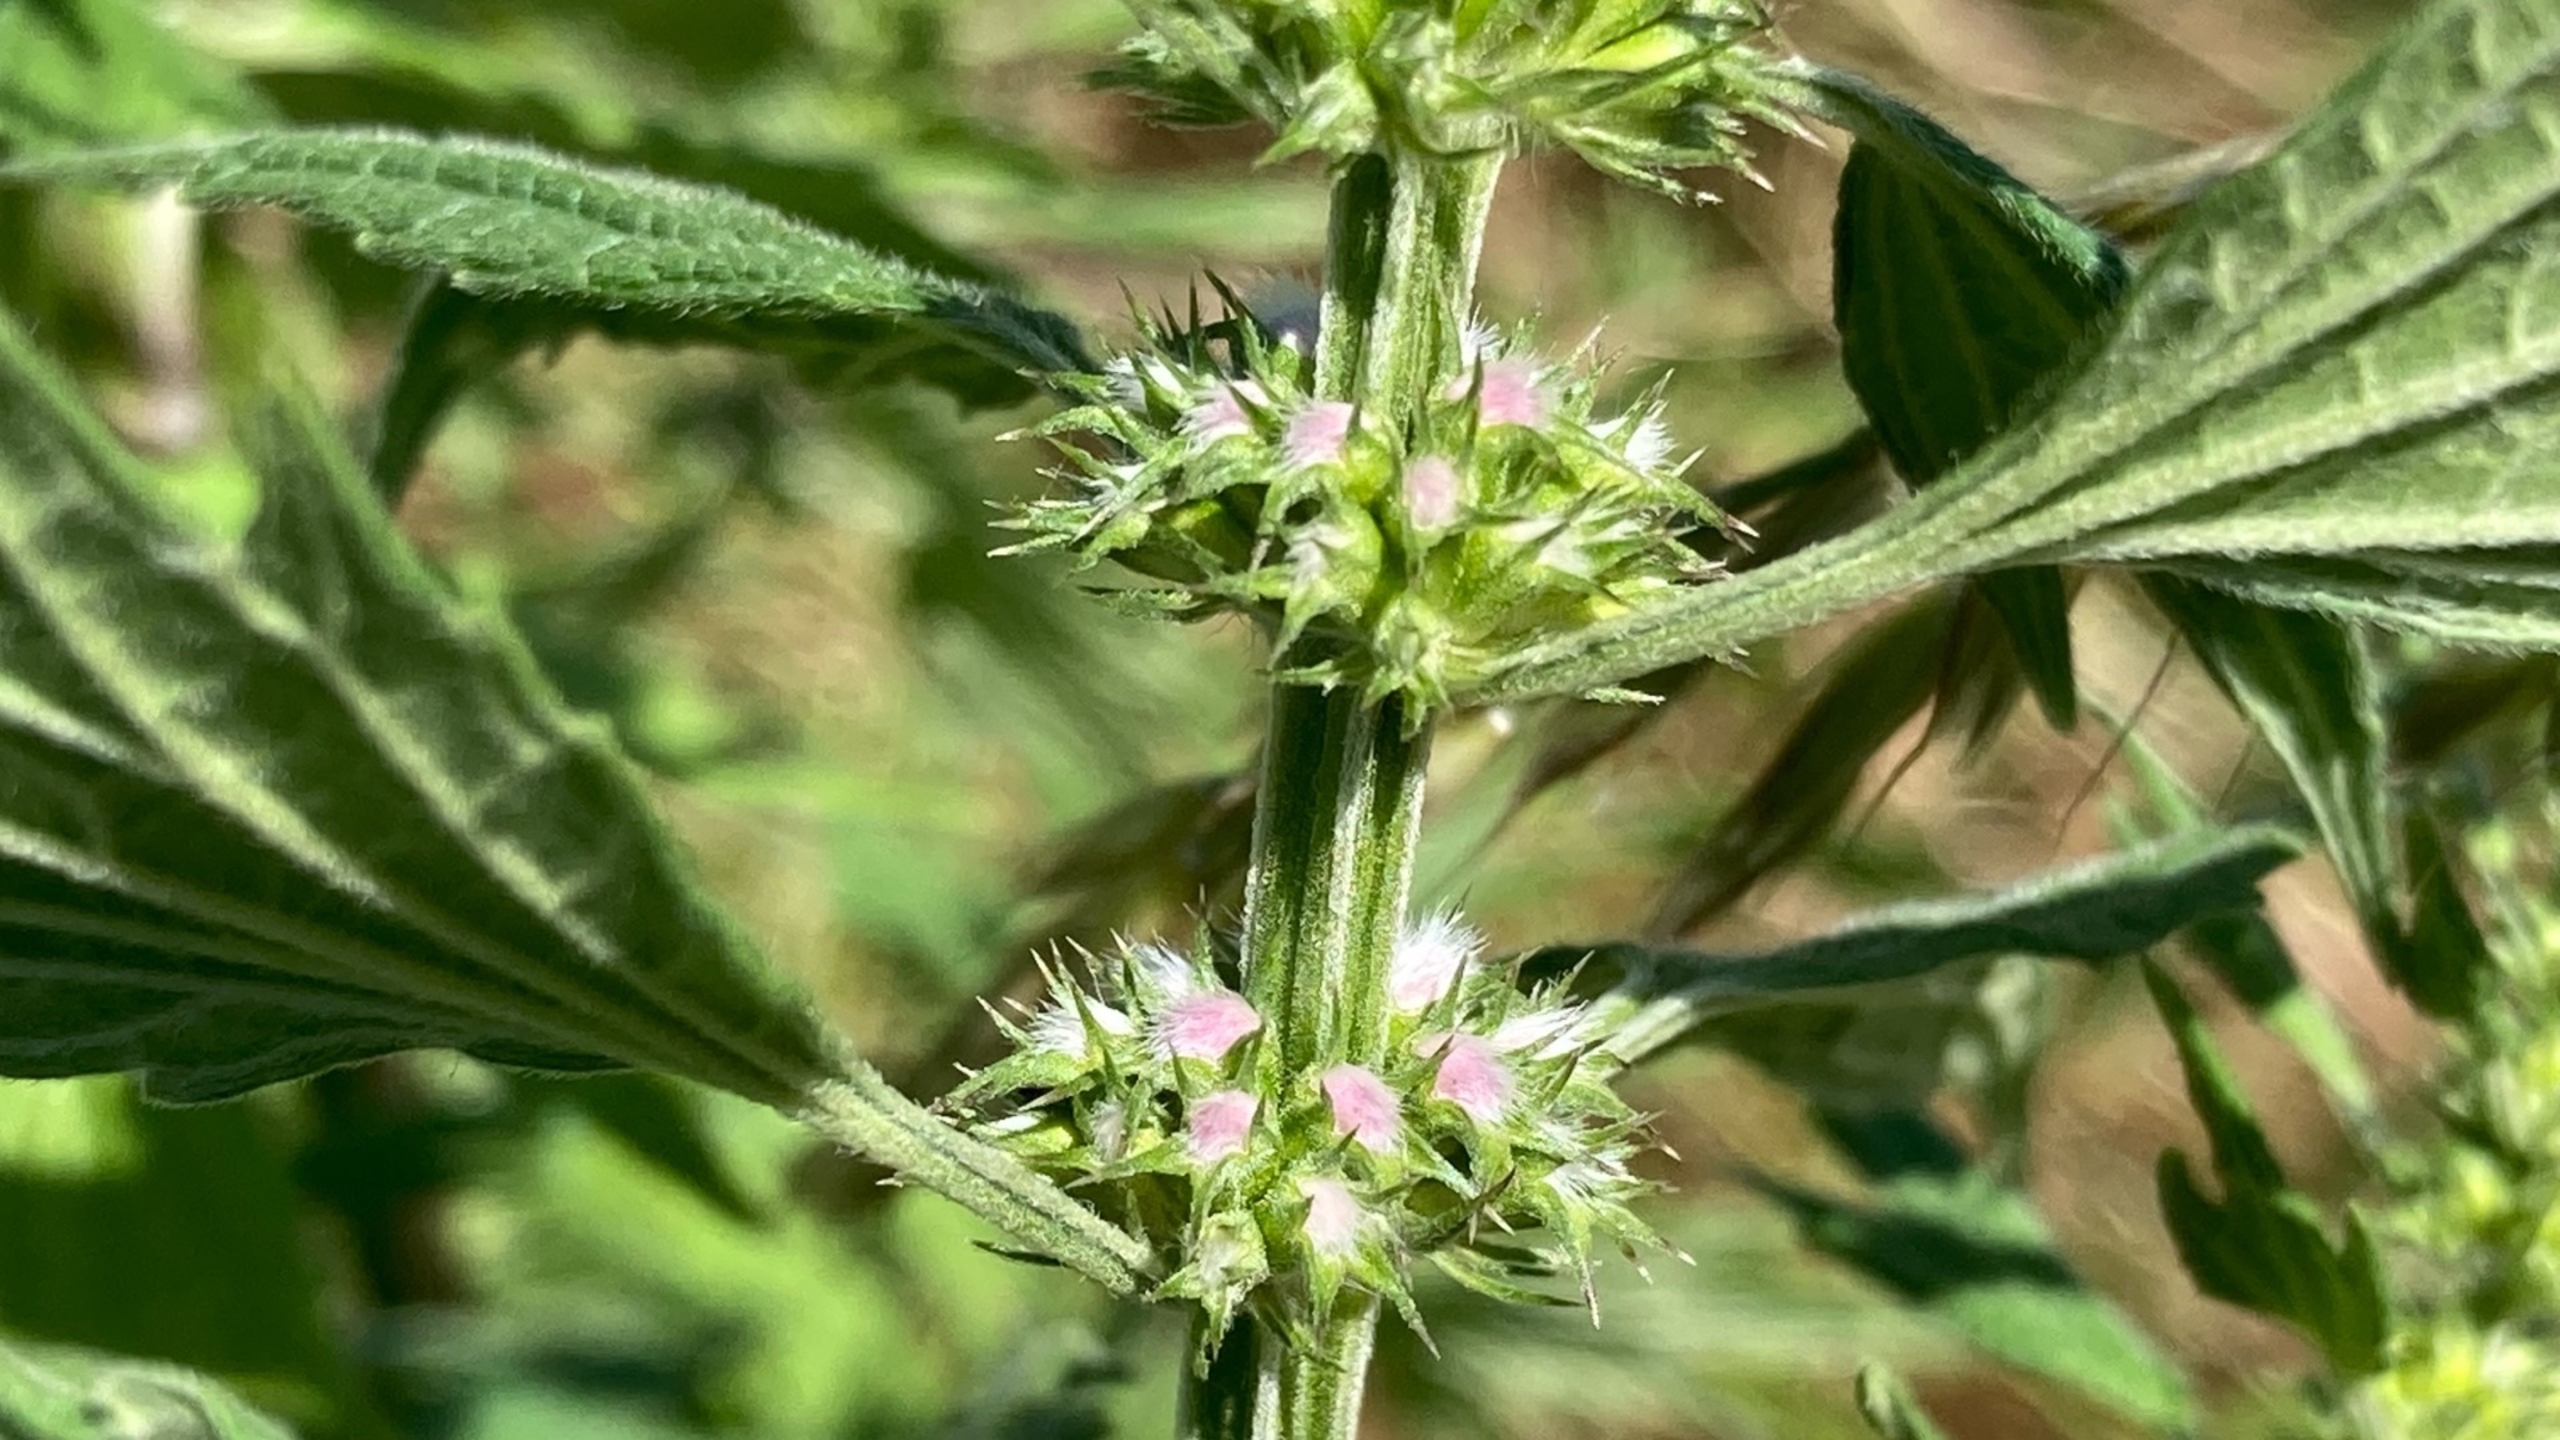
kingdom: Plantae
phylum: Tracheophyta
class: Magnoliopsida
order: Lamiales
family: Lamiaceae
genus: Leonurus
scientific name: Leonurus cardiaca
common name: Hjertespand
